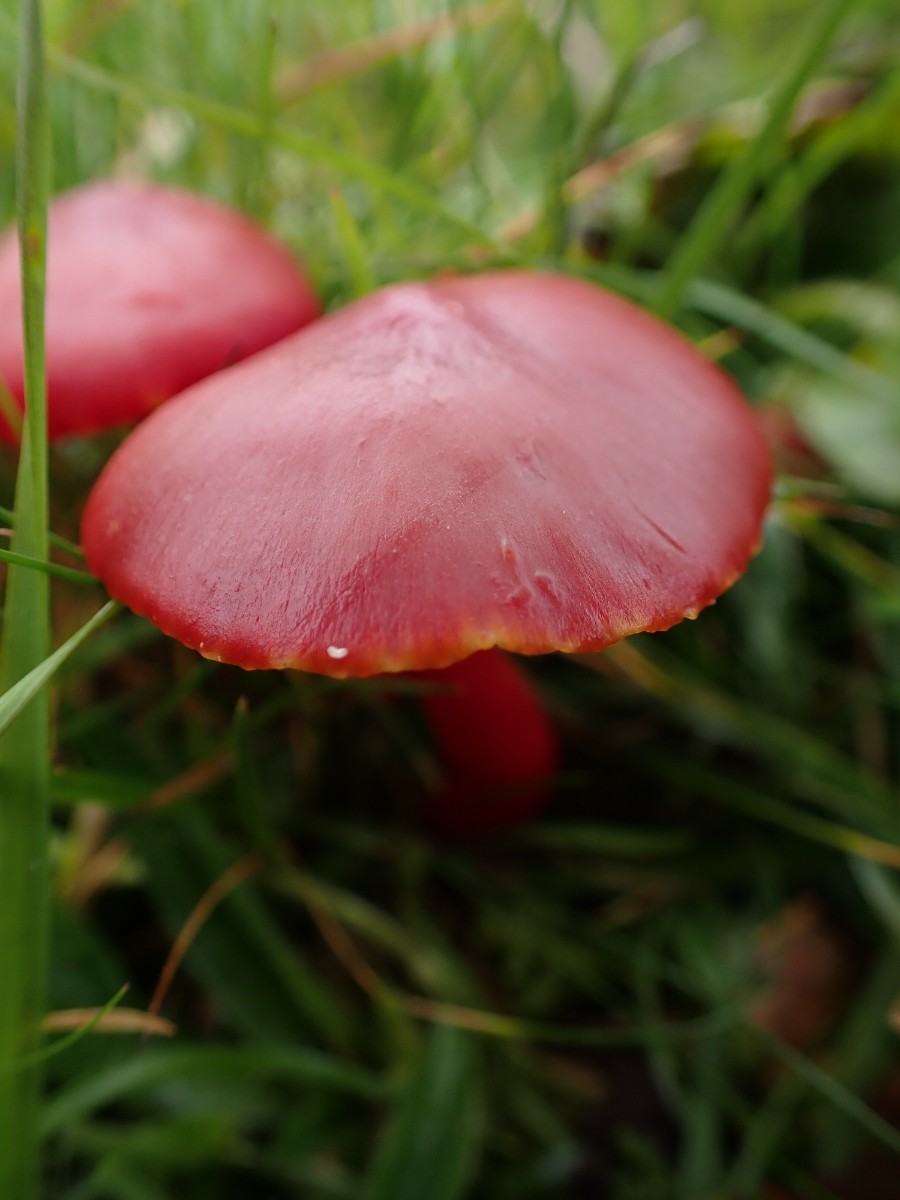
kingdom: Fungi
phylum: Basidiomycota
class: Agaricomycetes
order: Agaricales
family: Hygrophoraceae
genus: Hygrocybe
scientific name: Hygrocybe coccinea
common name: cinnober-vokshat
